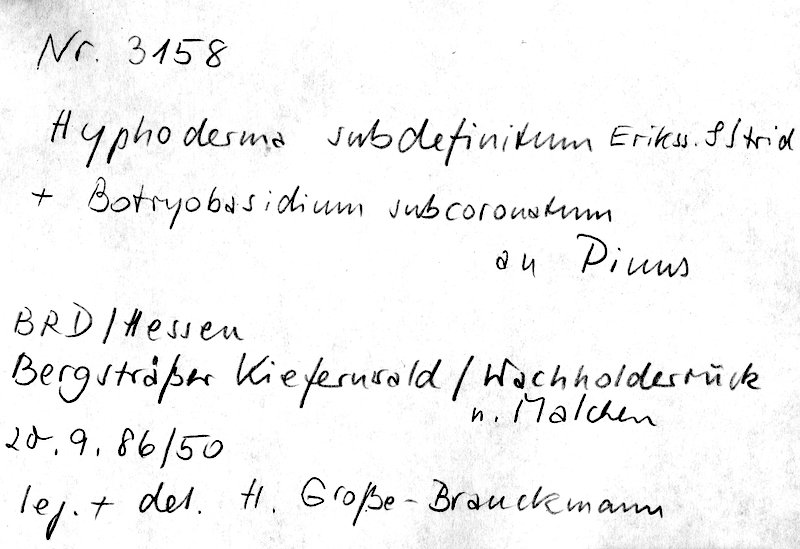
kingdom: Fungi
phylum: Basidiomycota
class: Agaricomycetes
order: Polyporales
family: Hyphodermataceae
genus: Hyphoderma
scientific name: Hyphoderma occidentale
